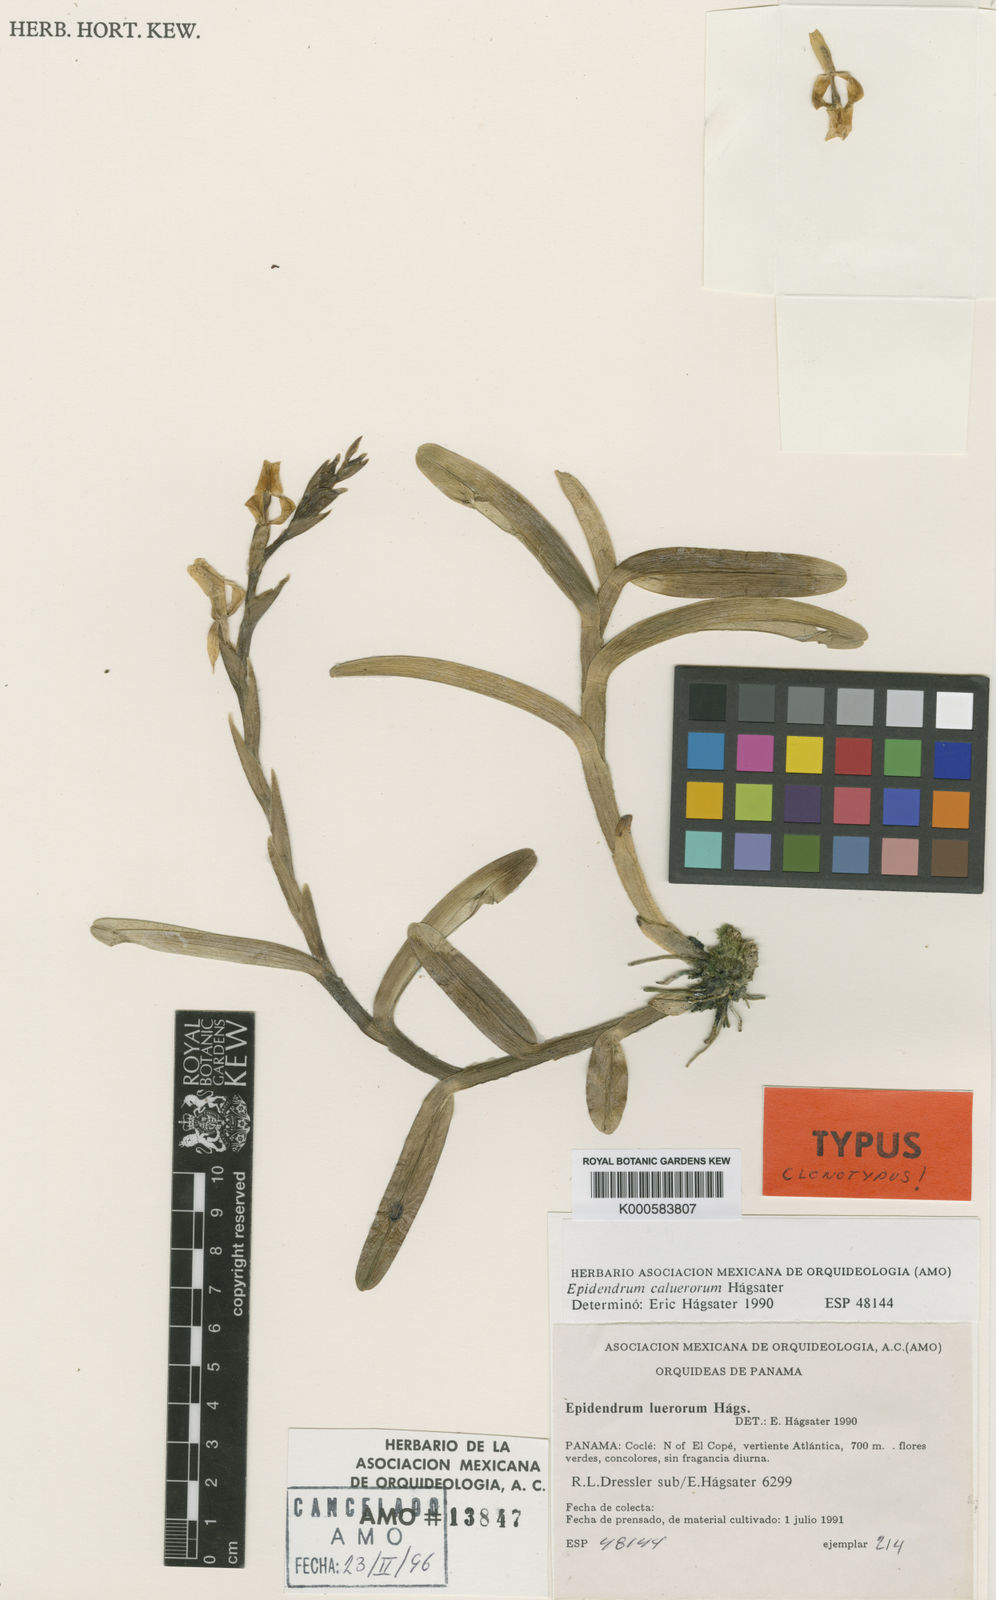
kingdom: Plantae
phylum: Tracheophyta
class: Liliopsida
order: Asparagales
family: Orchidaceae
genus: Epidendrum
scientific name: Epidendrum
